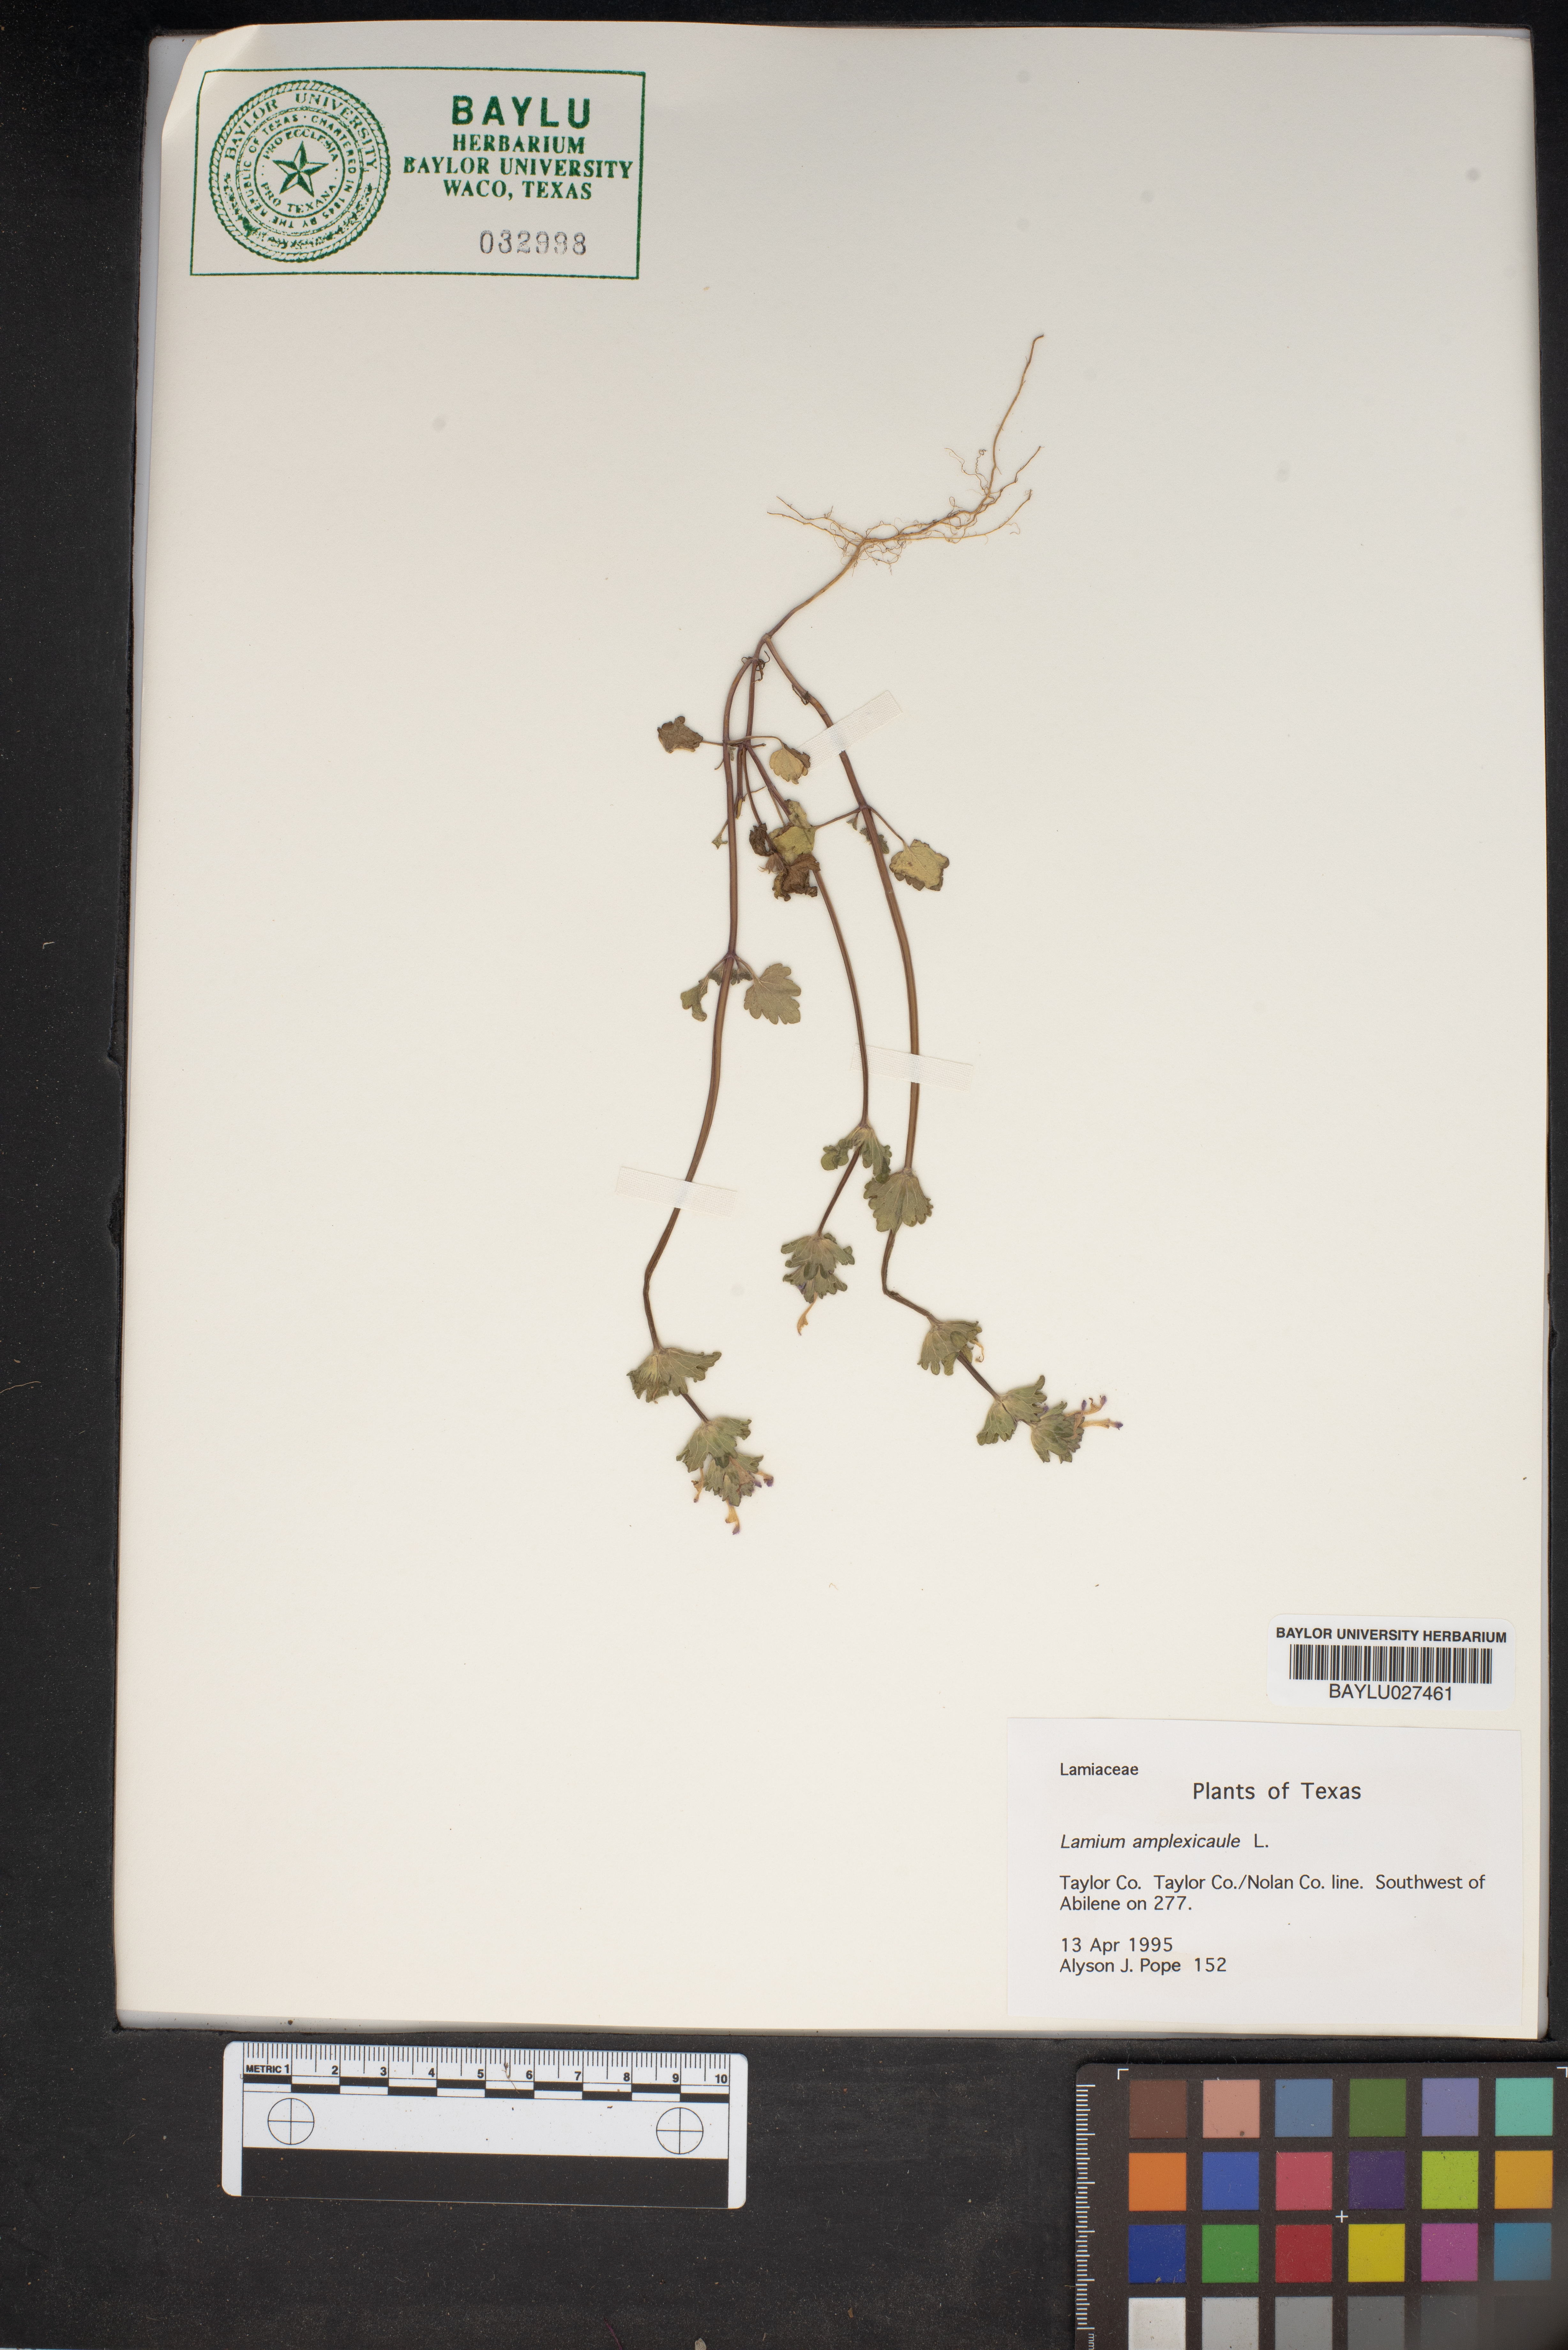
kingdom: Plantae
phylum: Tracheophyta
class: Magnoliopsida
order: Lamiales
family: Lamiaceae
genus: Lamium
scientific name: Lamium amplexicaule
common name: Henbit dead-nettle
